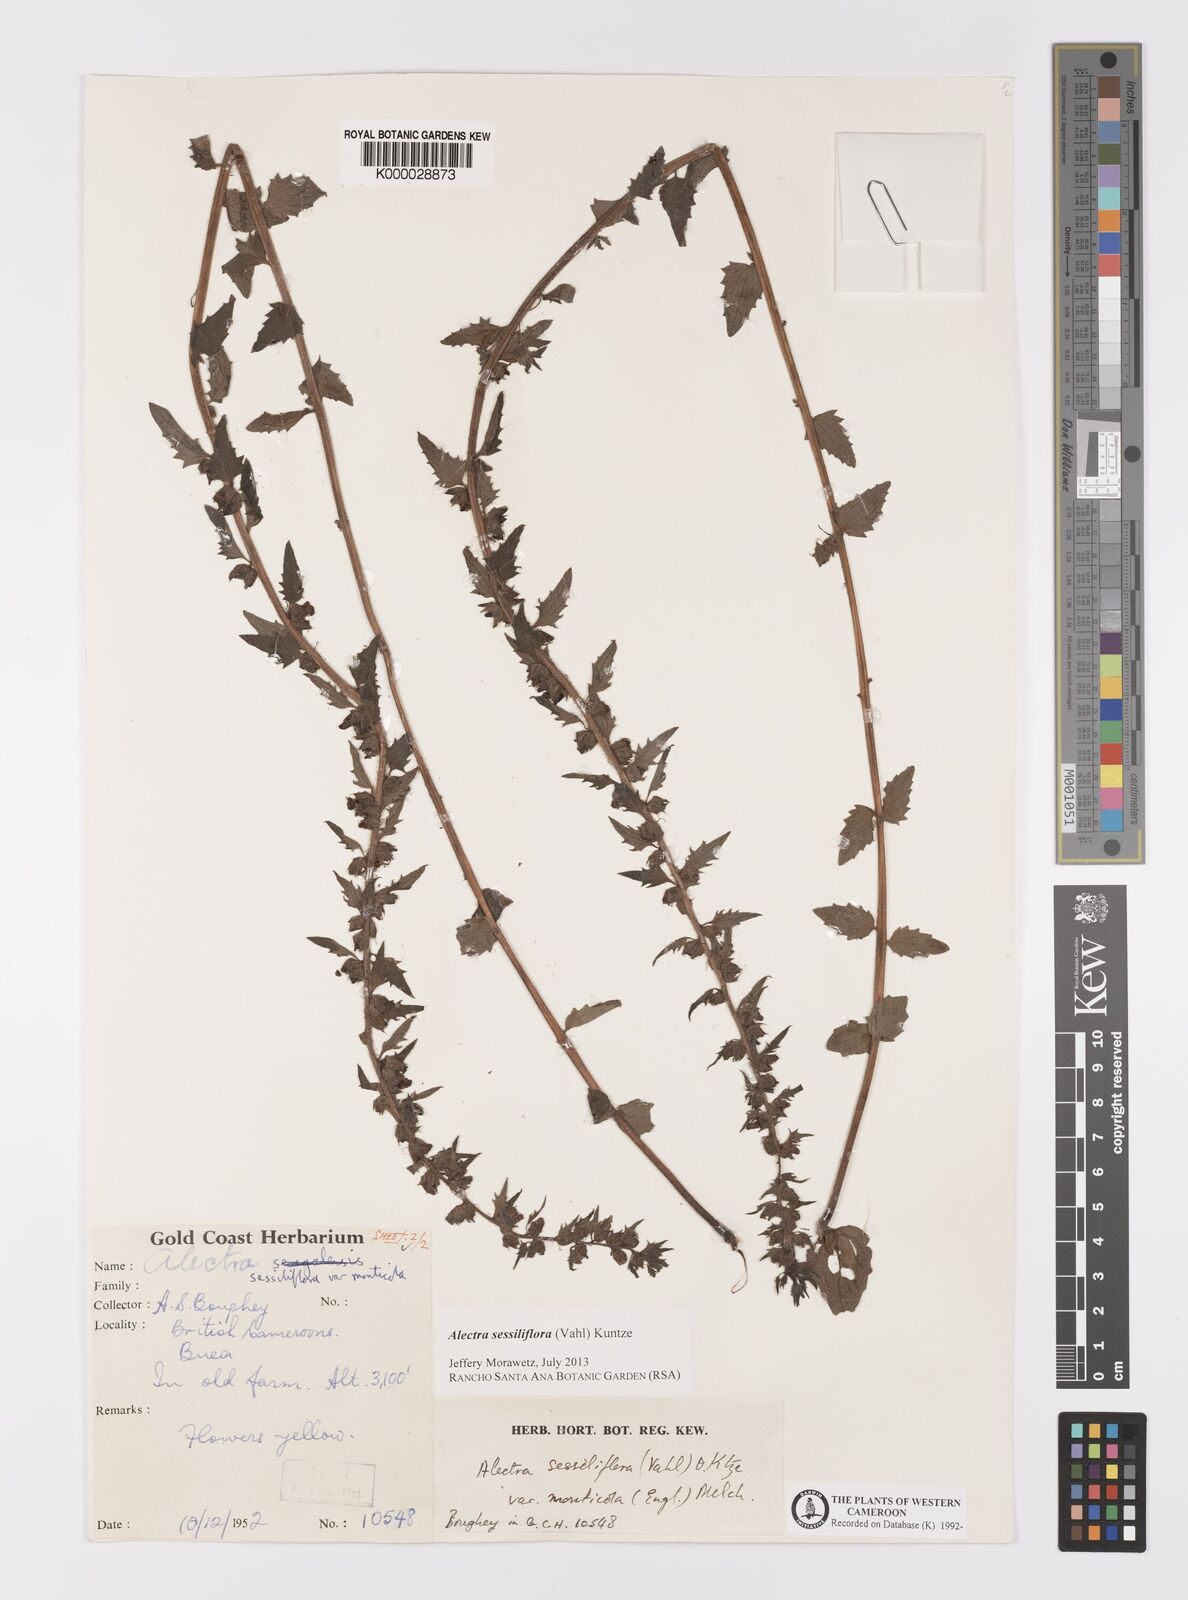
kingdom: Plantae
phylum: Tracheophyta
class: Magnoliopsida
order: Lamiales
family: Orobanchaceae
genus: Alectra
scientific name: Alectra sessiliflora
